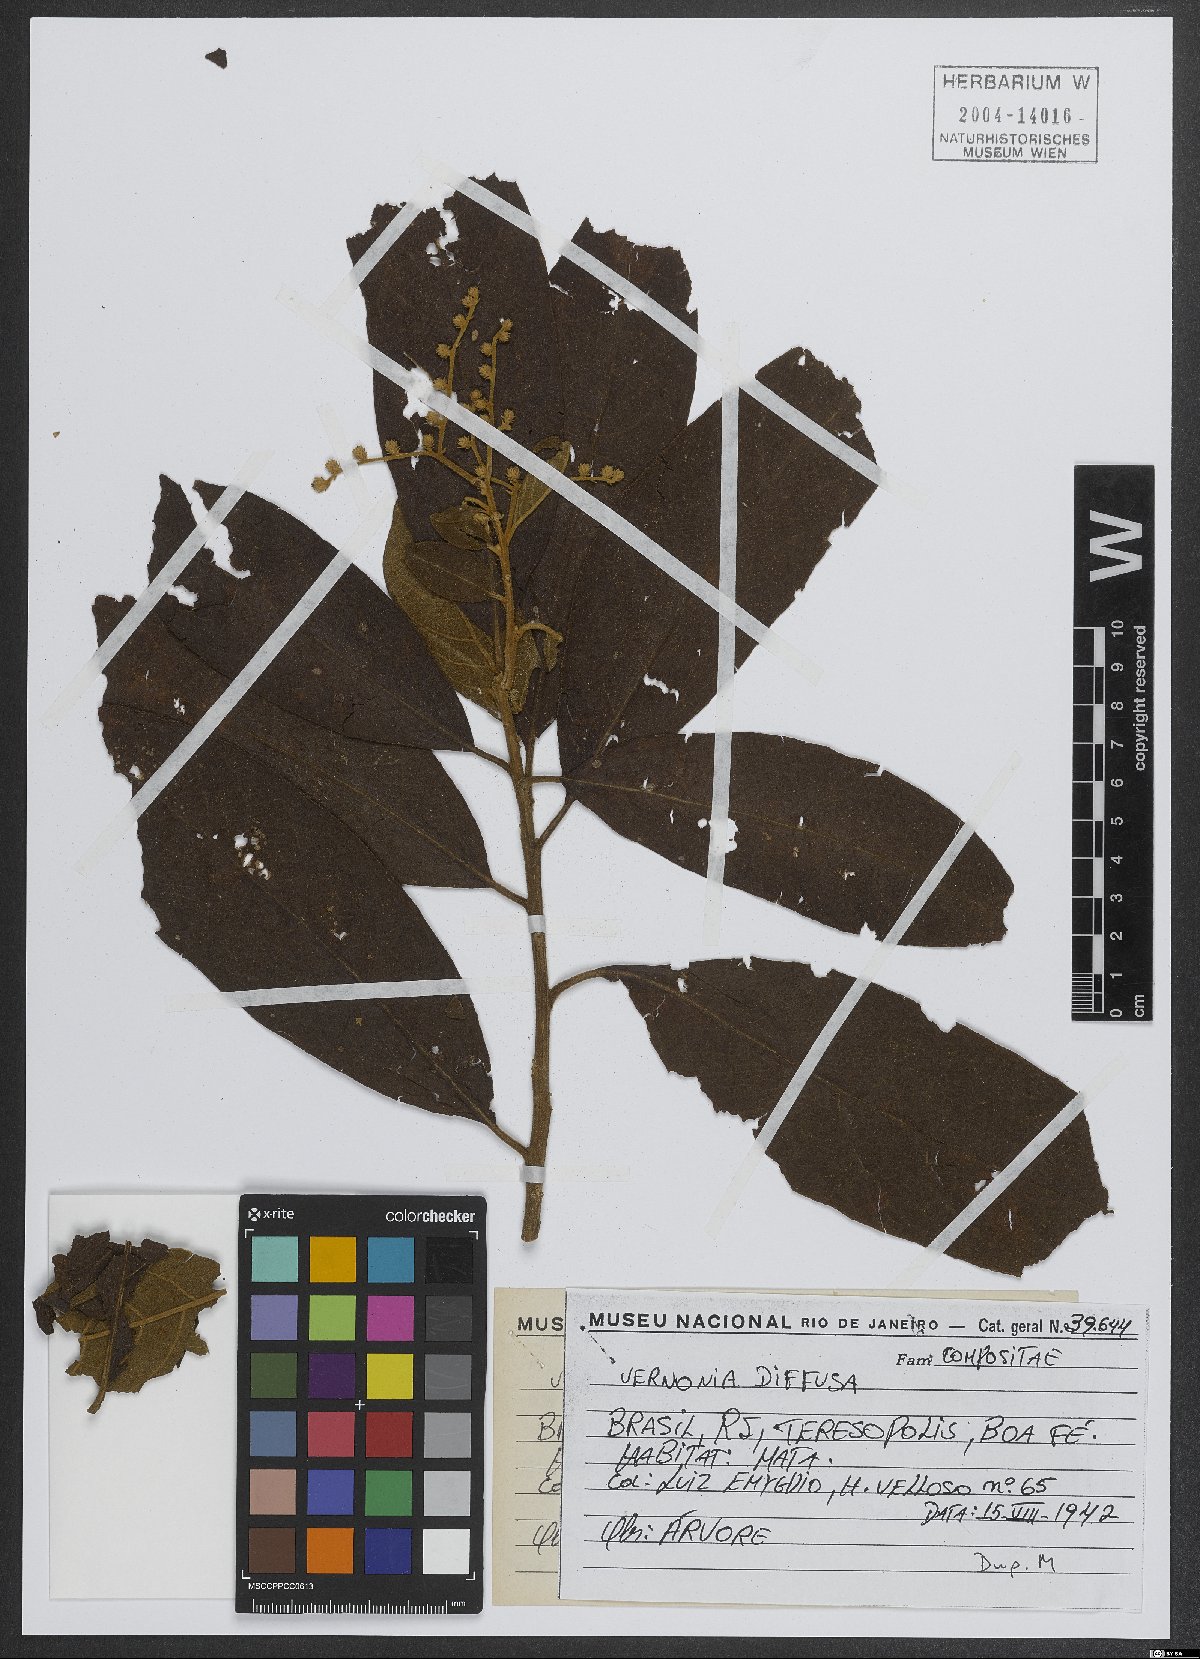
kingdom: Plantae
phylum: Tracheophyta
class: Magnoliopsida
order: Asterales
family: Asteraceae
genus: Vernonanthura
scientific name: Vernonanthura divaricata
